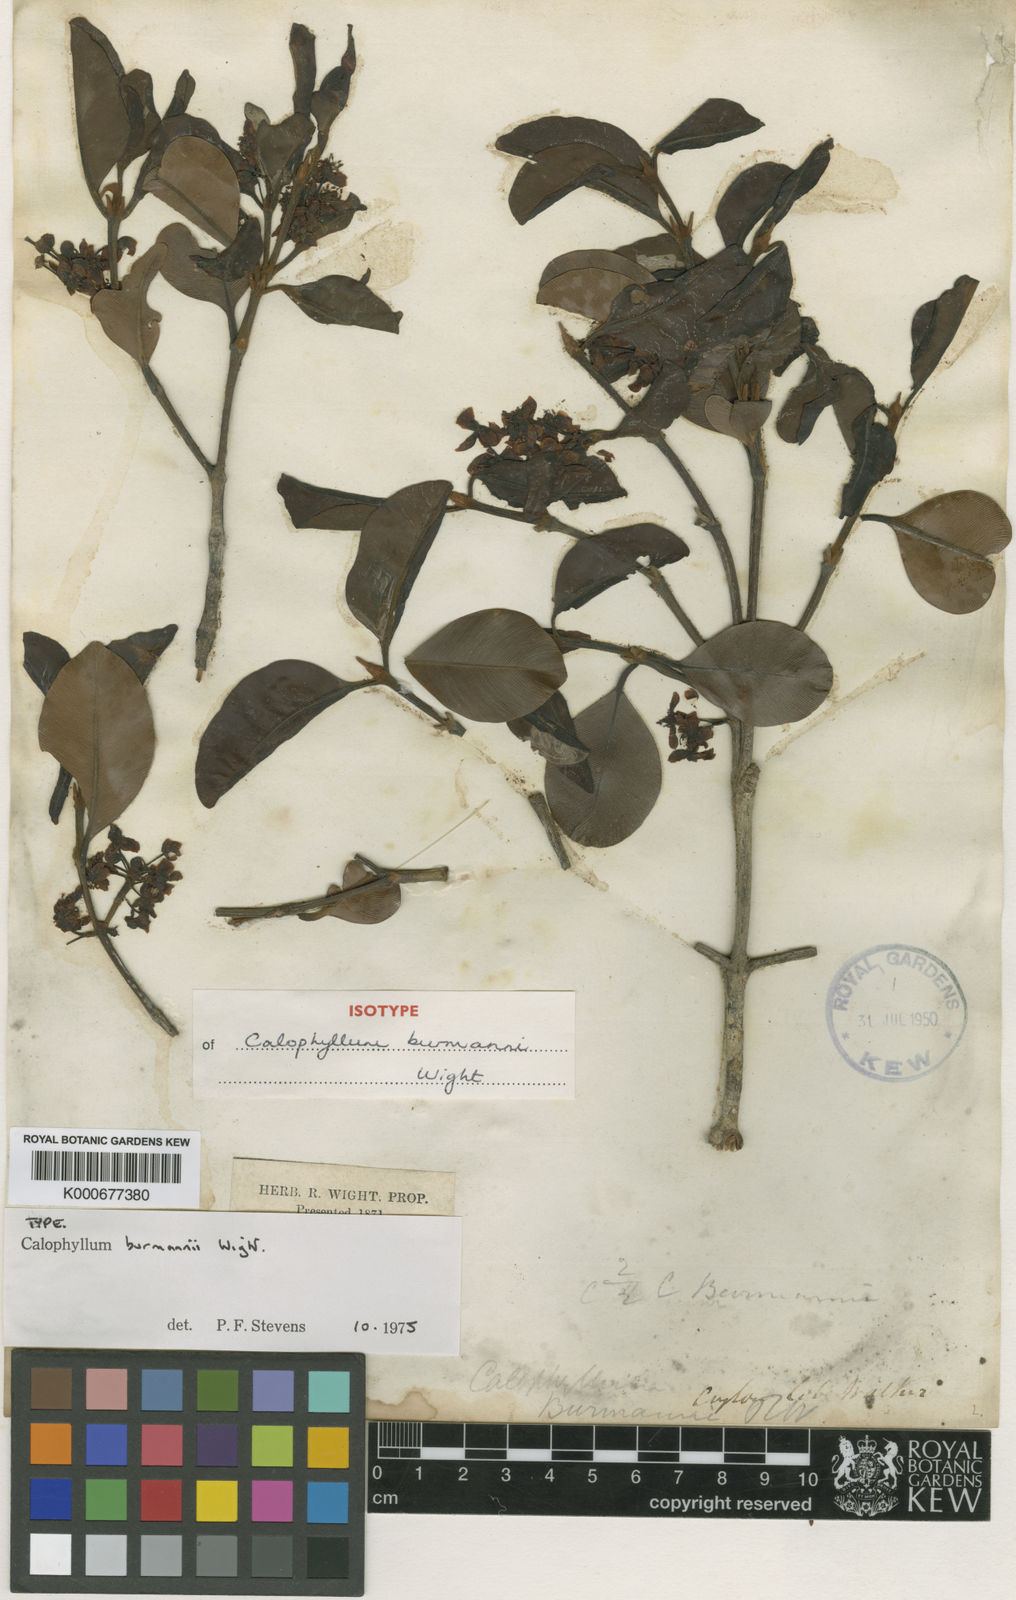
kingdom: Plantae
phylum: Tracheophyta
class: Magnoliopsida
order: Malpighiales
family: Calophyllaceae
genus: Calophyllum
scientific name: Calophyllum calaba
